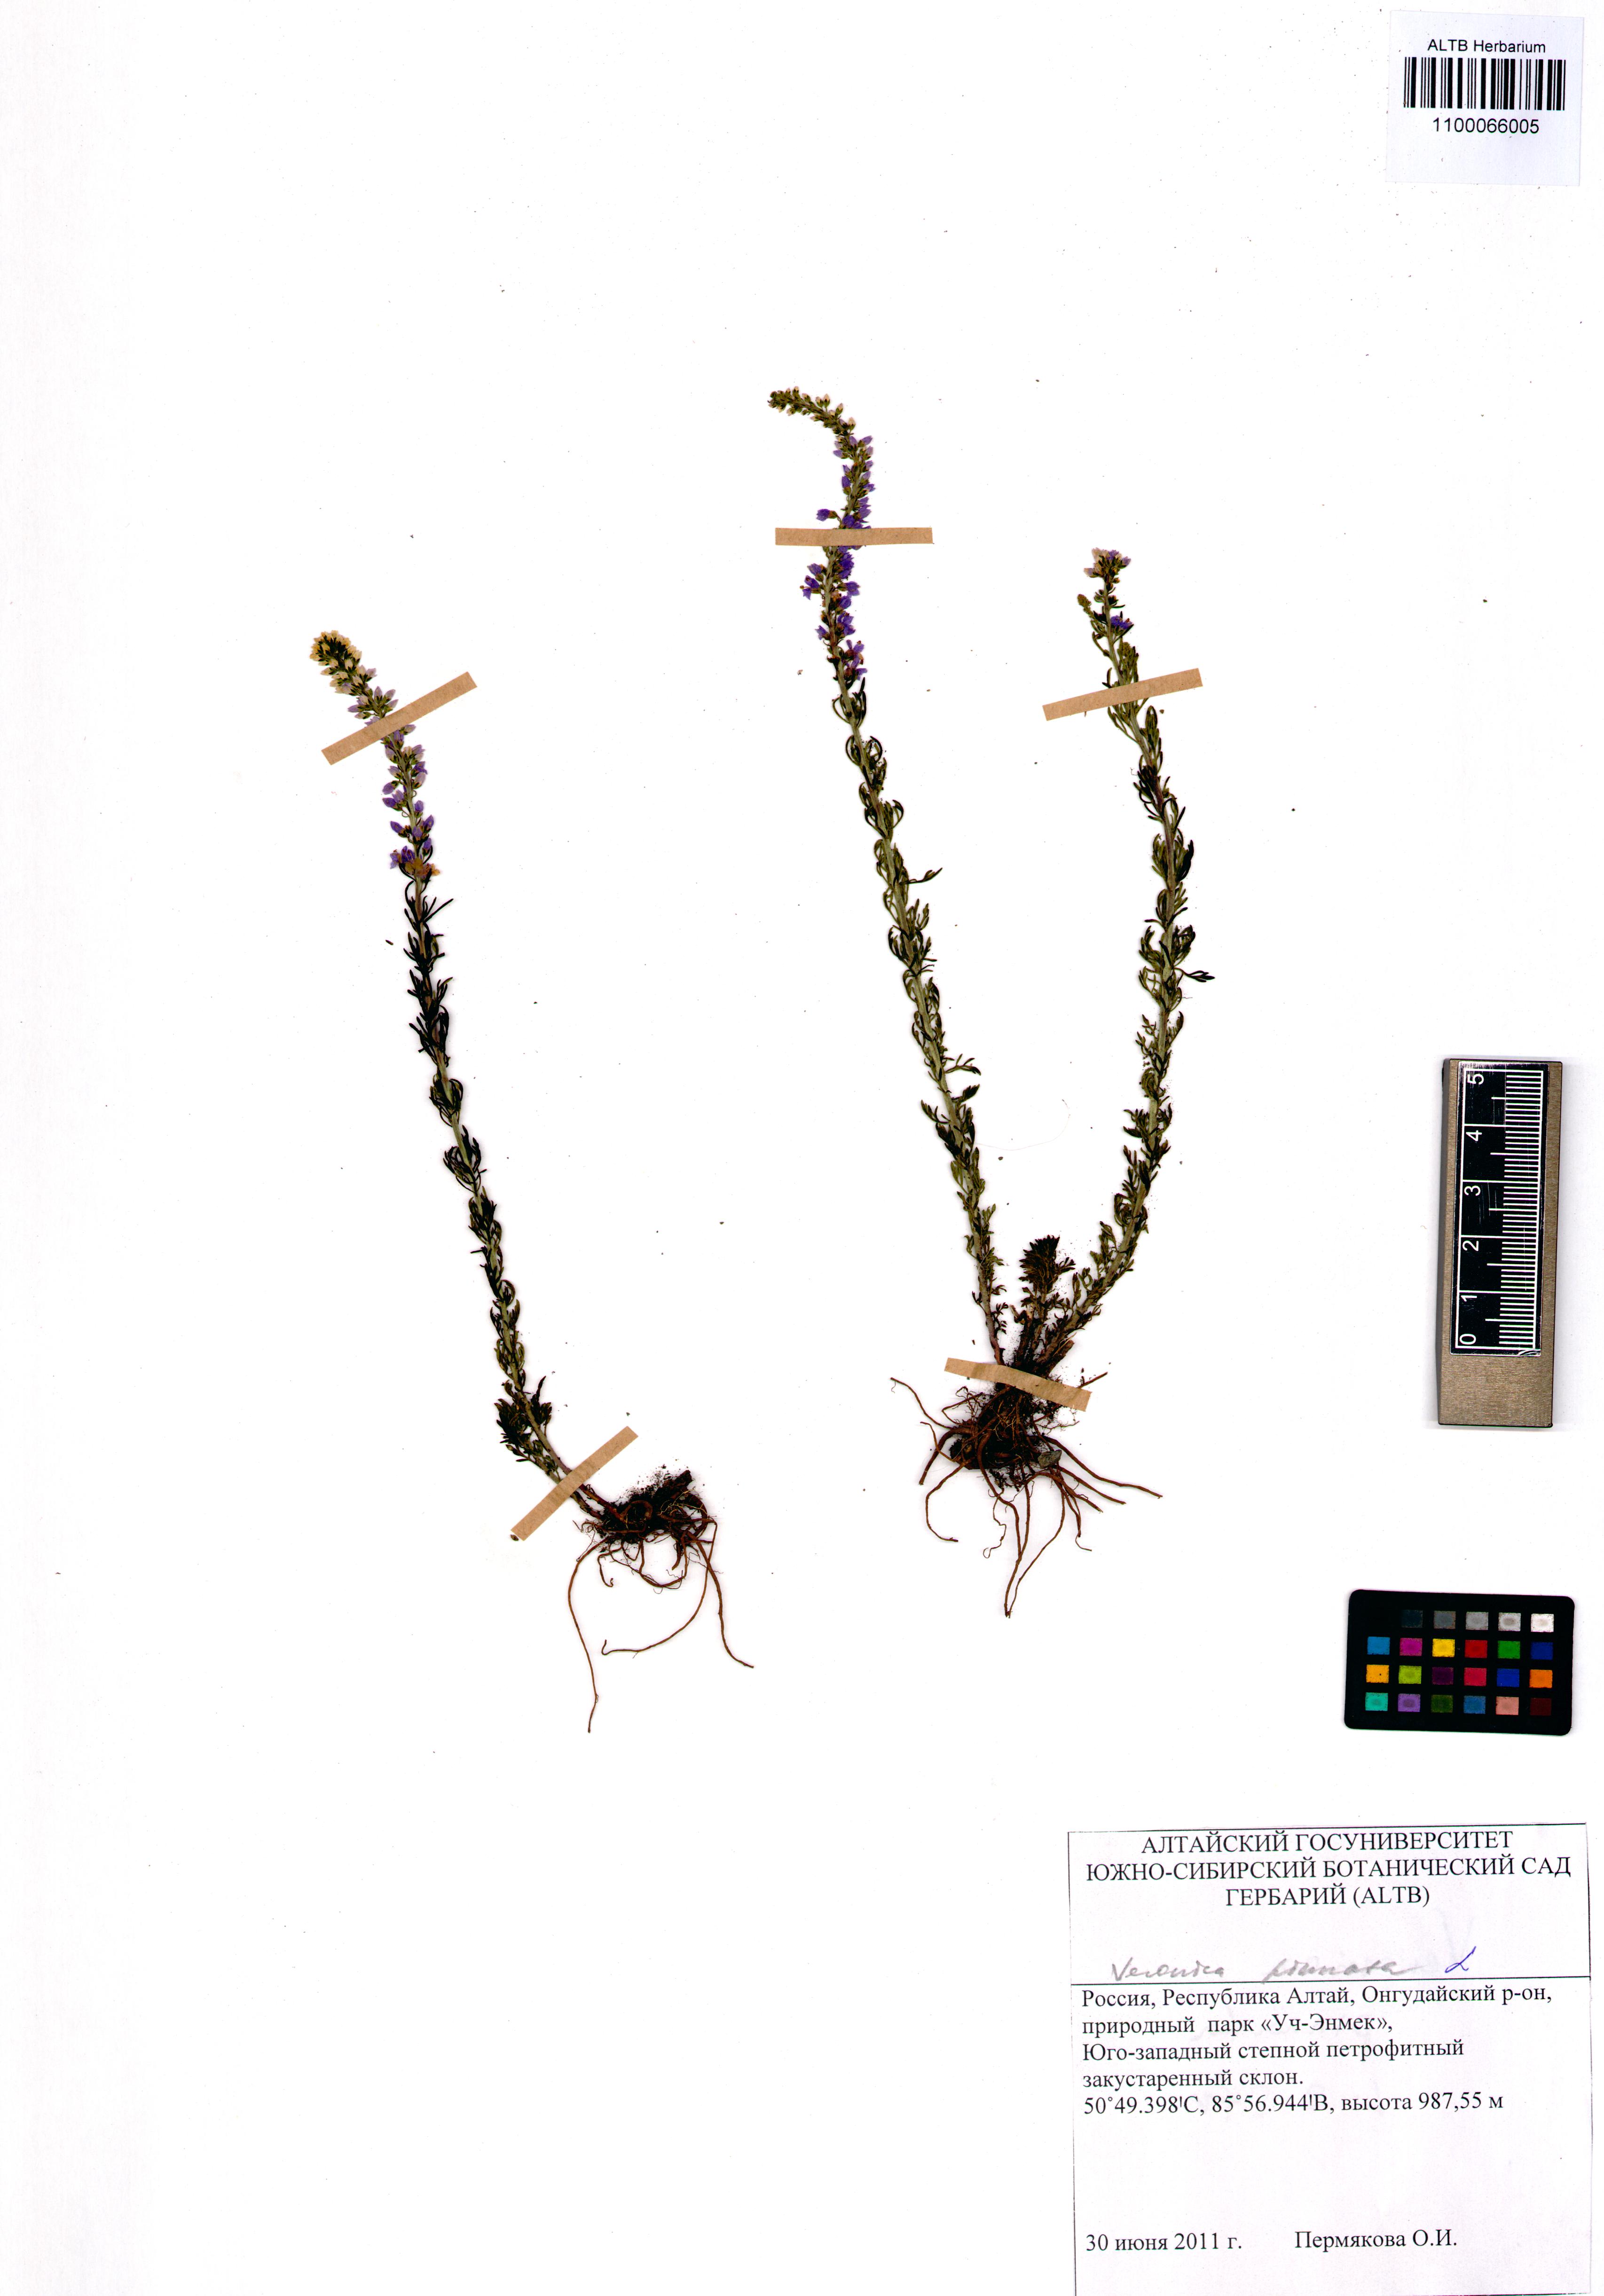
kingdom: Plantae
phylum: Tracheophyta
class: Magnoliopsida
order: Lamiales
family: Plantaginaceae
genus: Veronica
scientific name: Veronica pinnata
